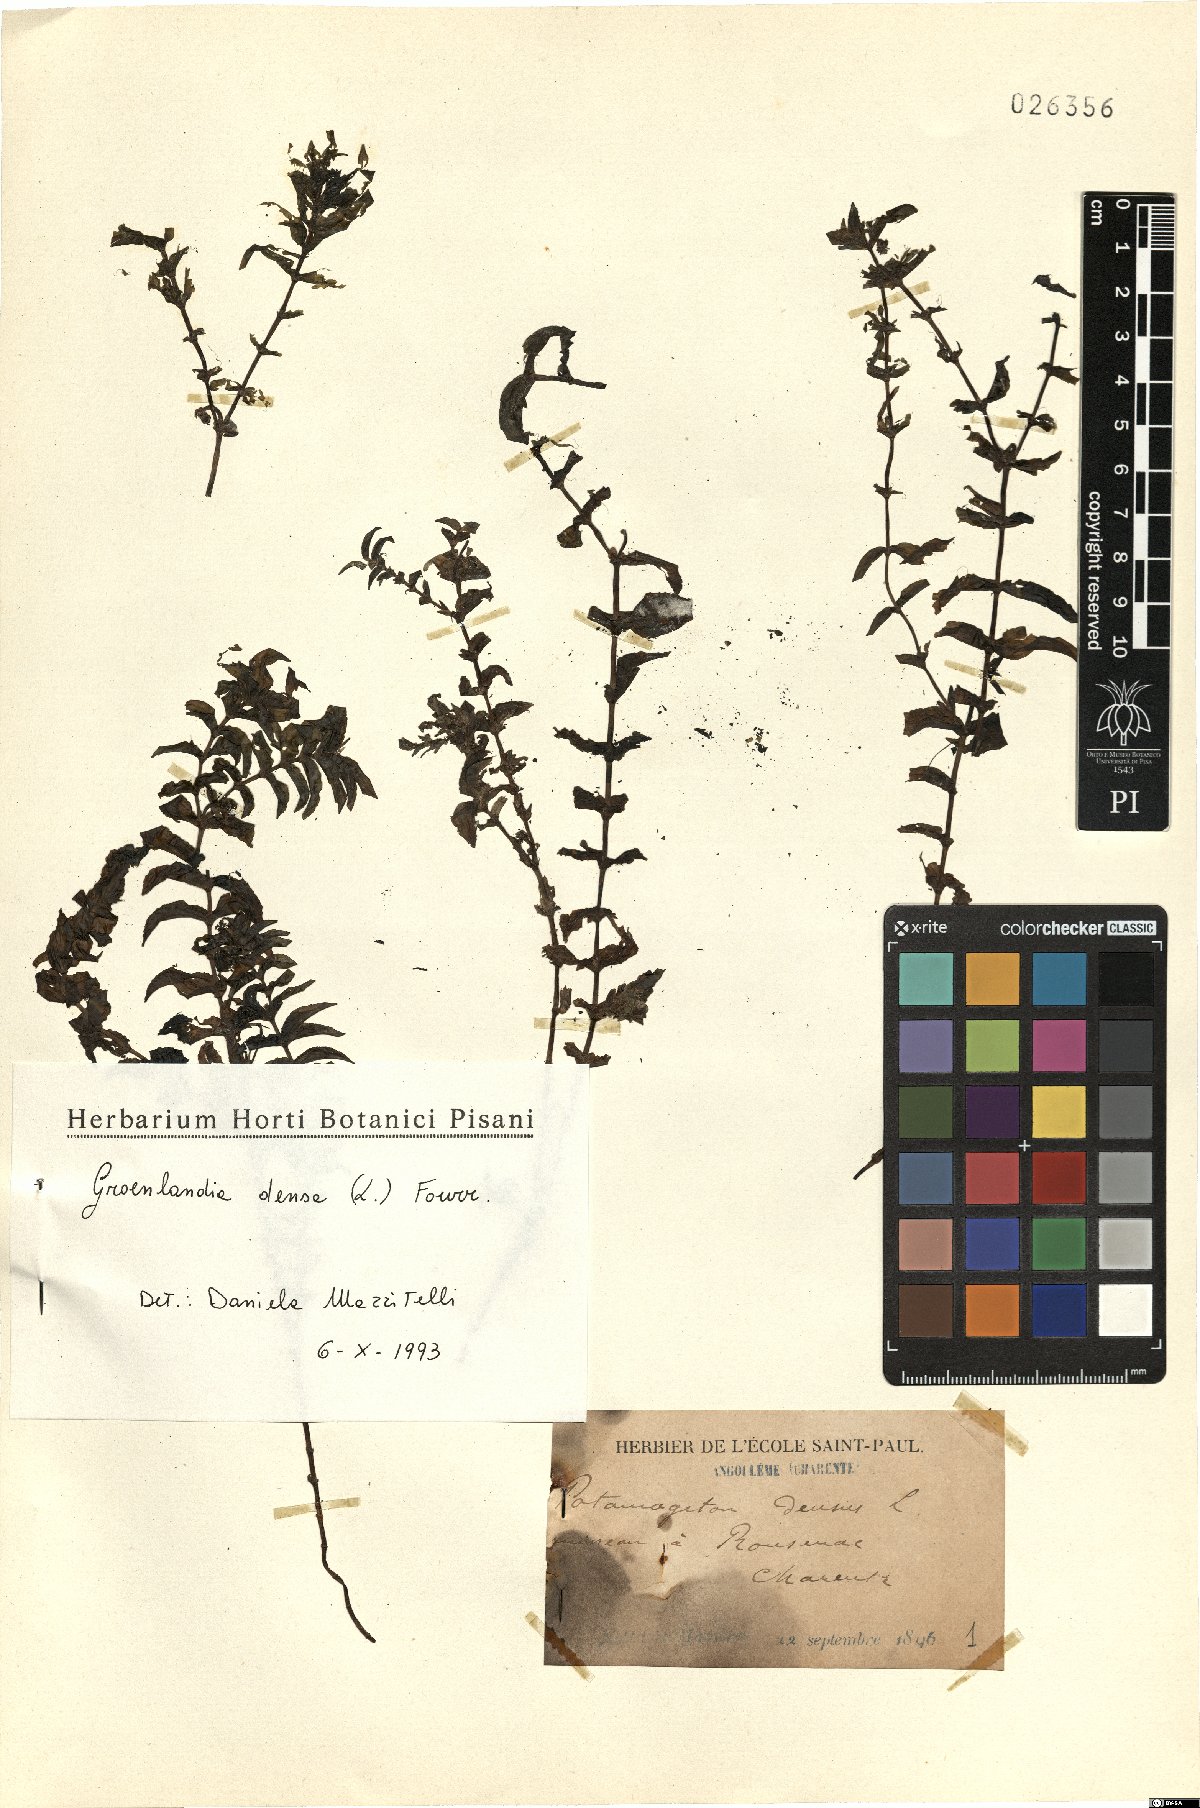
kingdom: Plantae
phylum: Tracheophyta
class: Liliopsida
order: Alismatales
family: Potamogetonaceae
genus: Groenlandia
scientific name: Groenlandia densa
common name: Opposite-leaved pondweed
